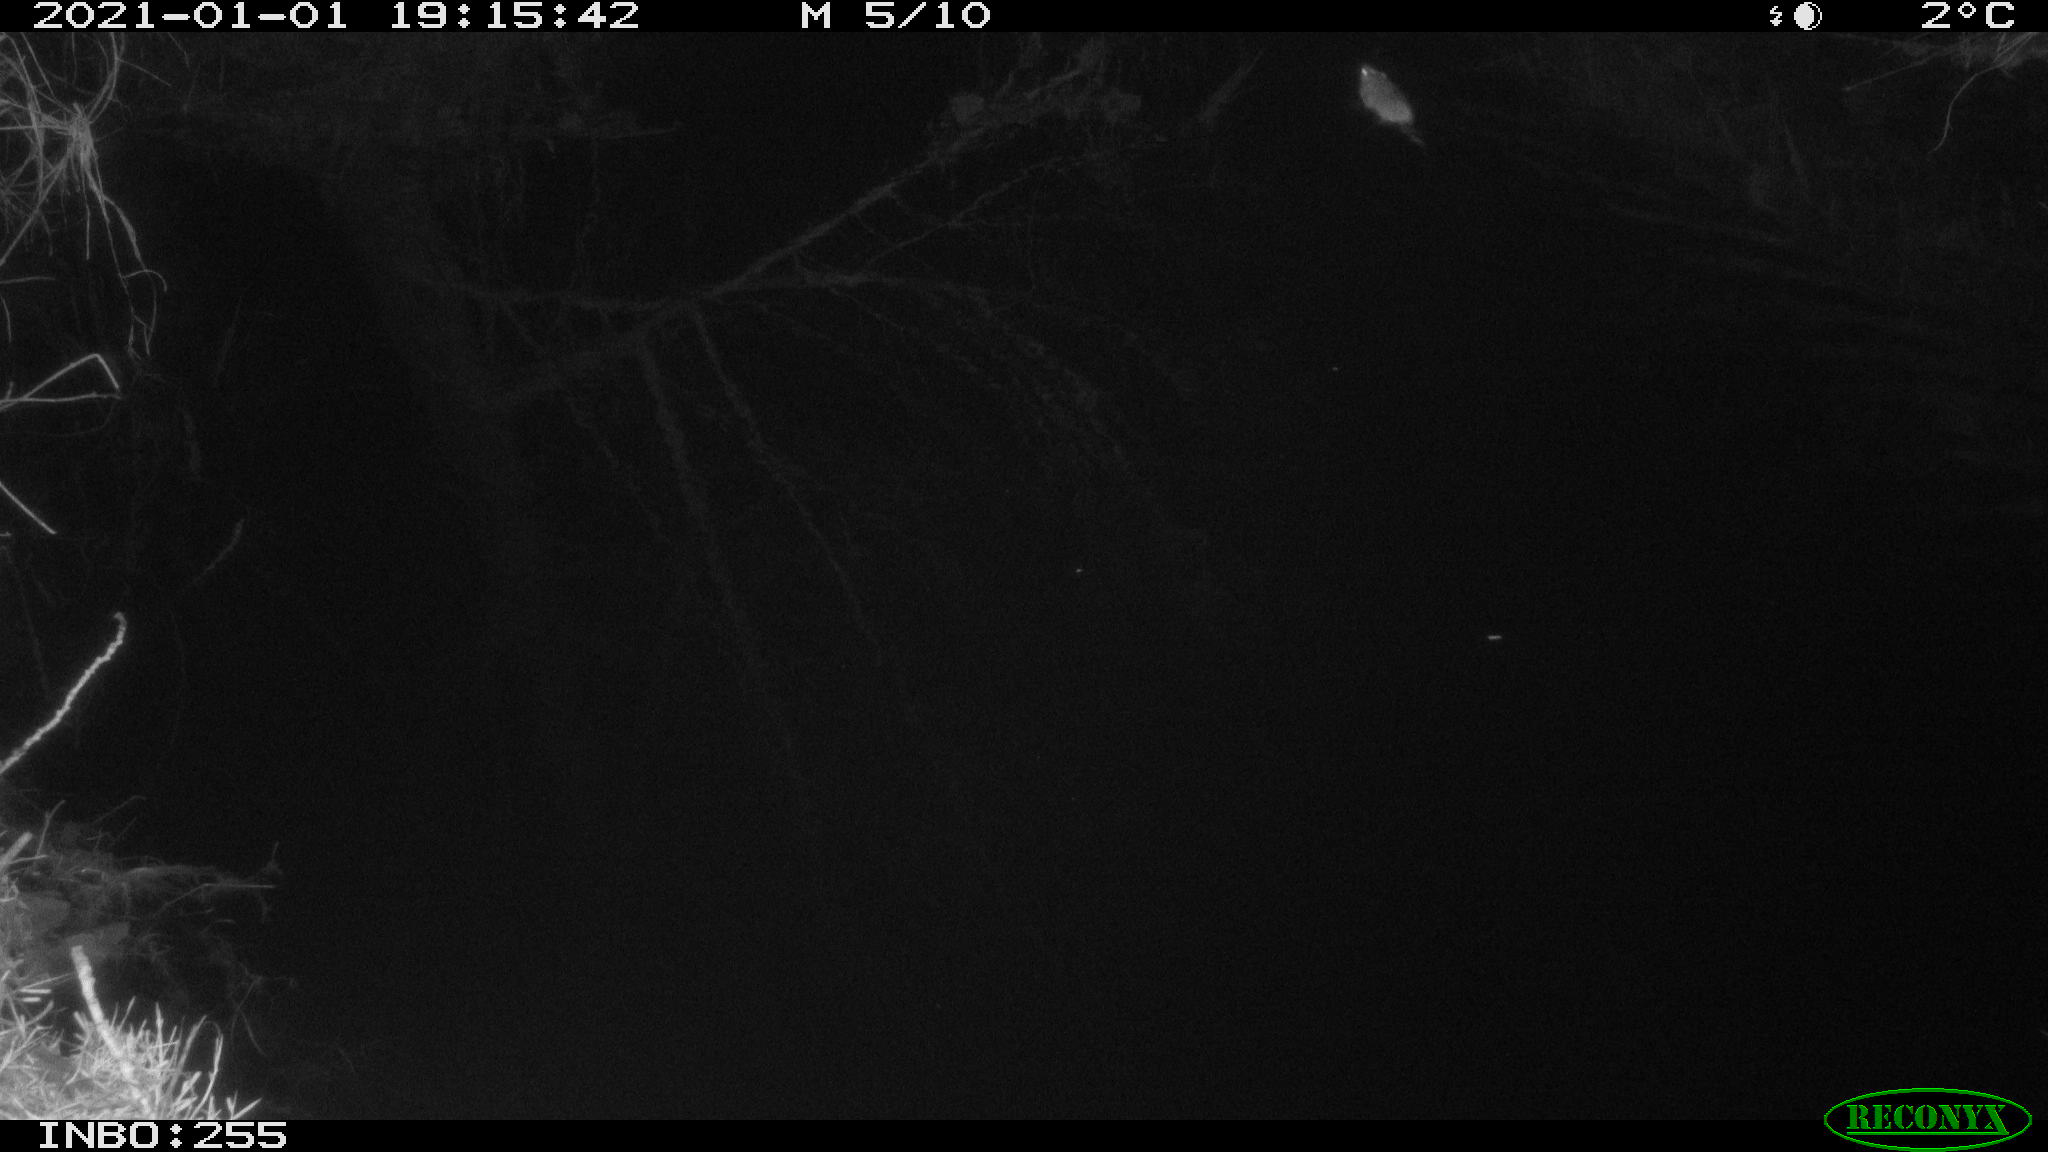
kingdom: Animalia
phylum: Chordata
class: Mammalia
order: Rodentia
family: Muridae
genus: Rattus
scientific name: Rattus norvegicus
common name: Brown rat
